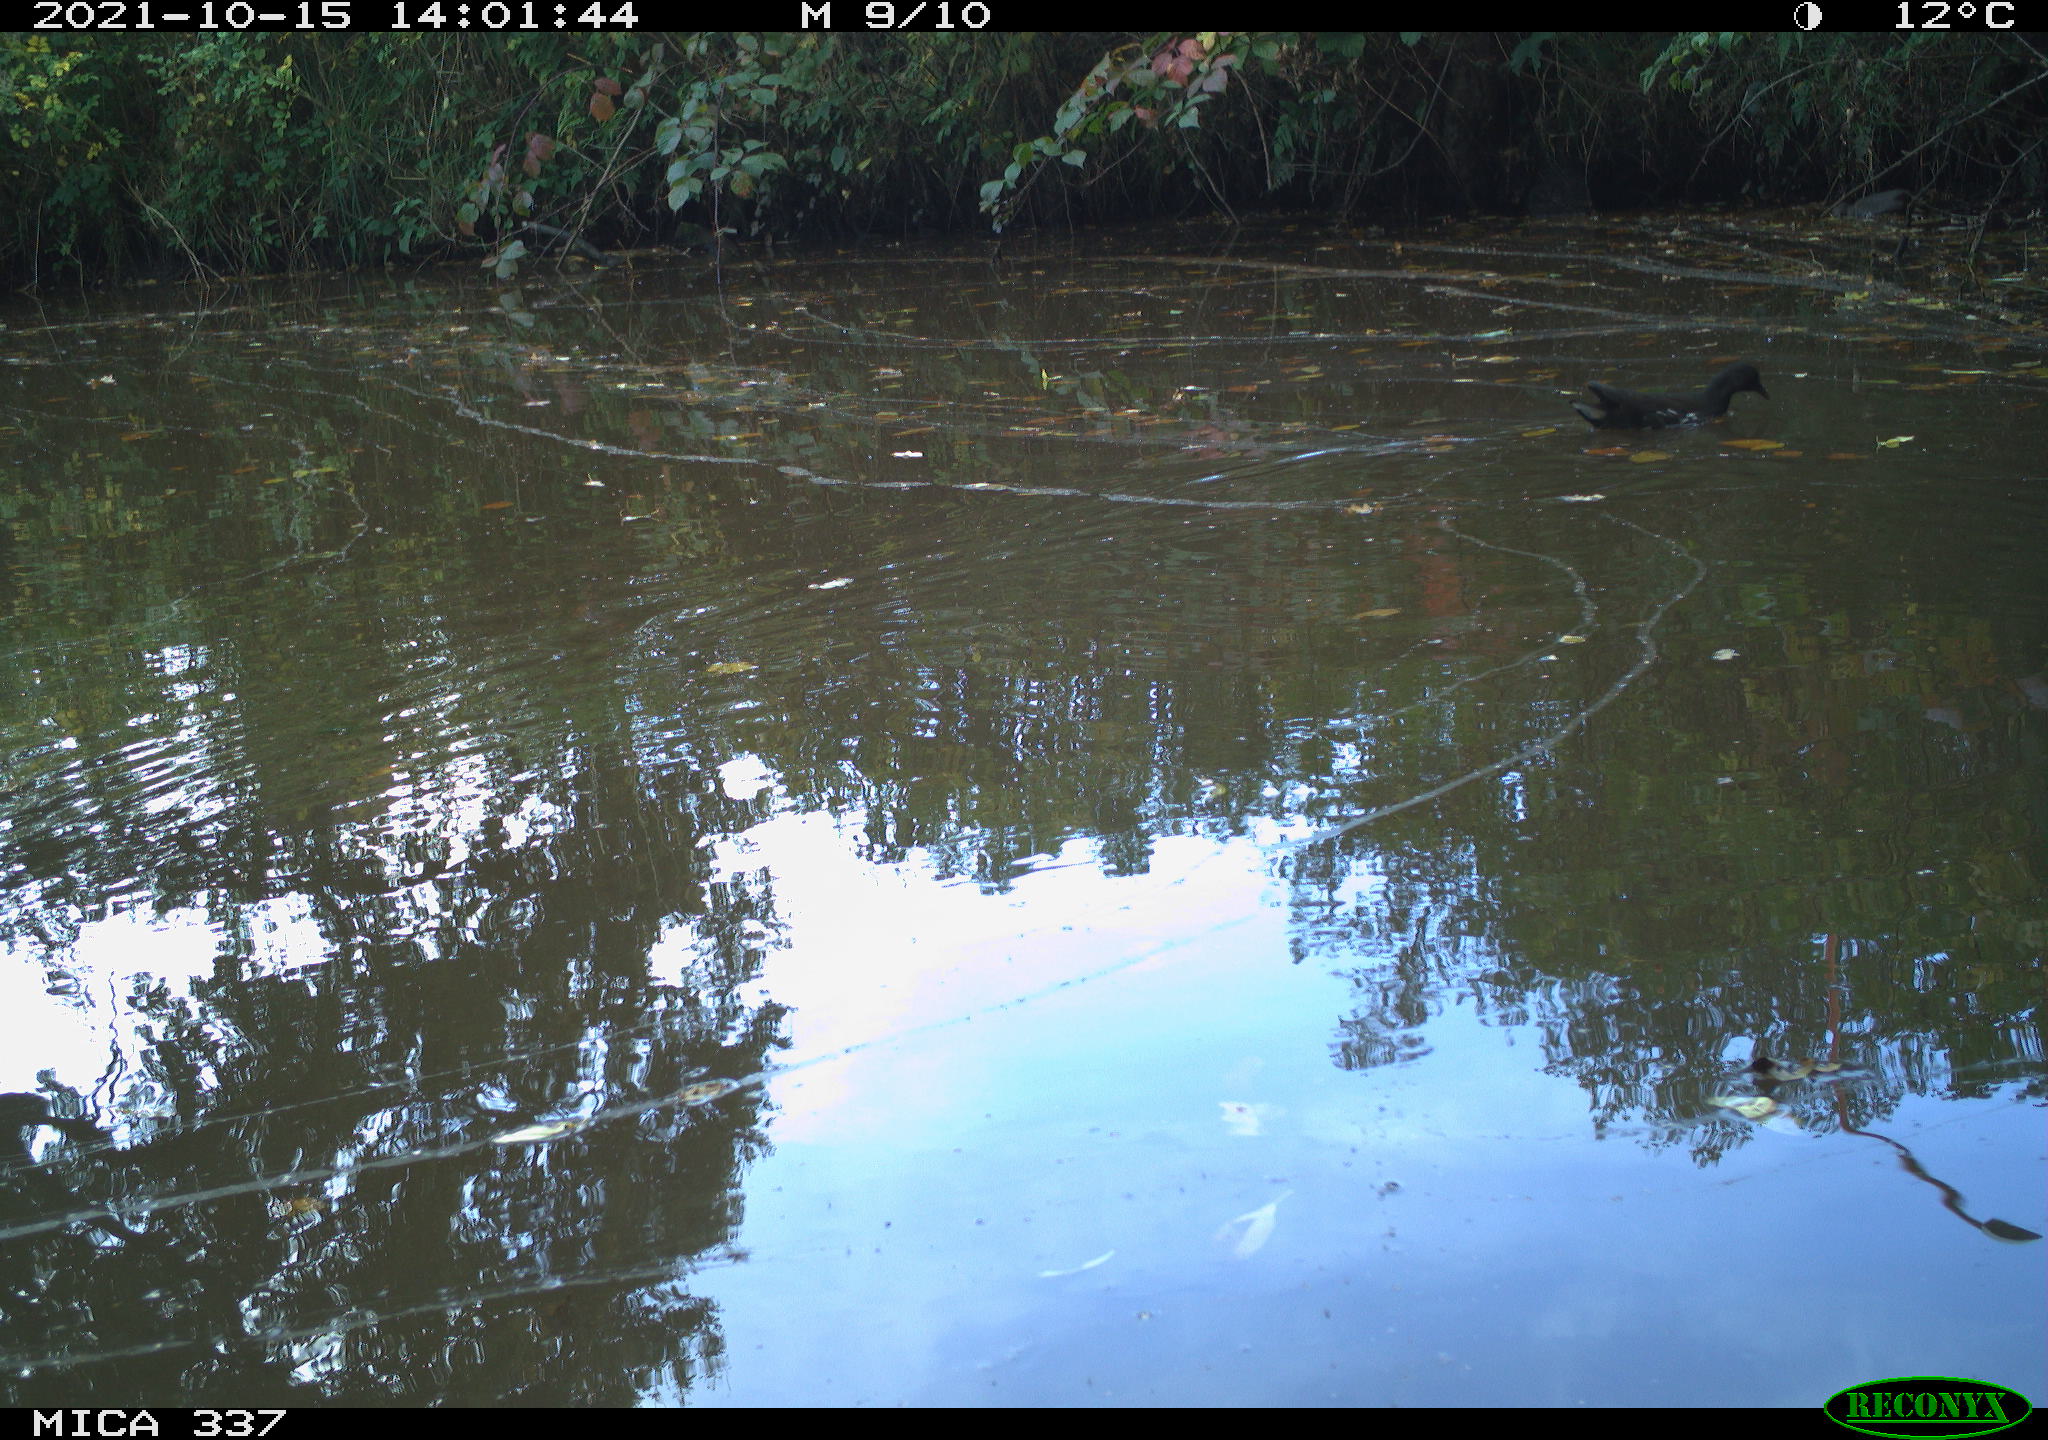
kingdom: Animalia
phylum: Chordata
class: Aves
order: Gruiformes
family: Rallidae
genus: Gallinula
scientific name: Gallinula chloropus
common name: Common moorhen
